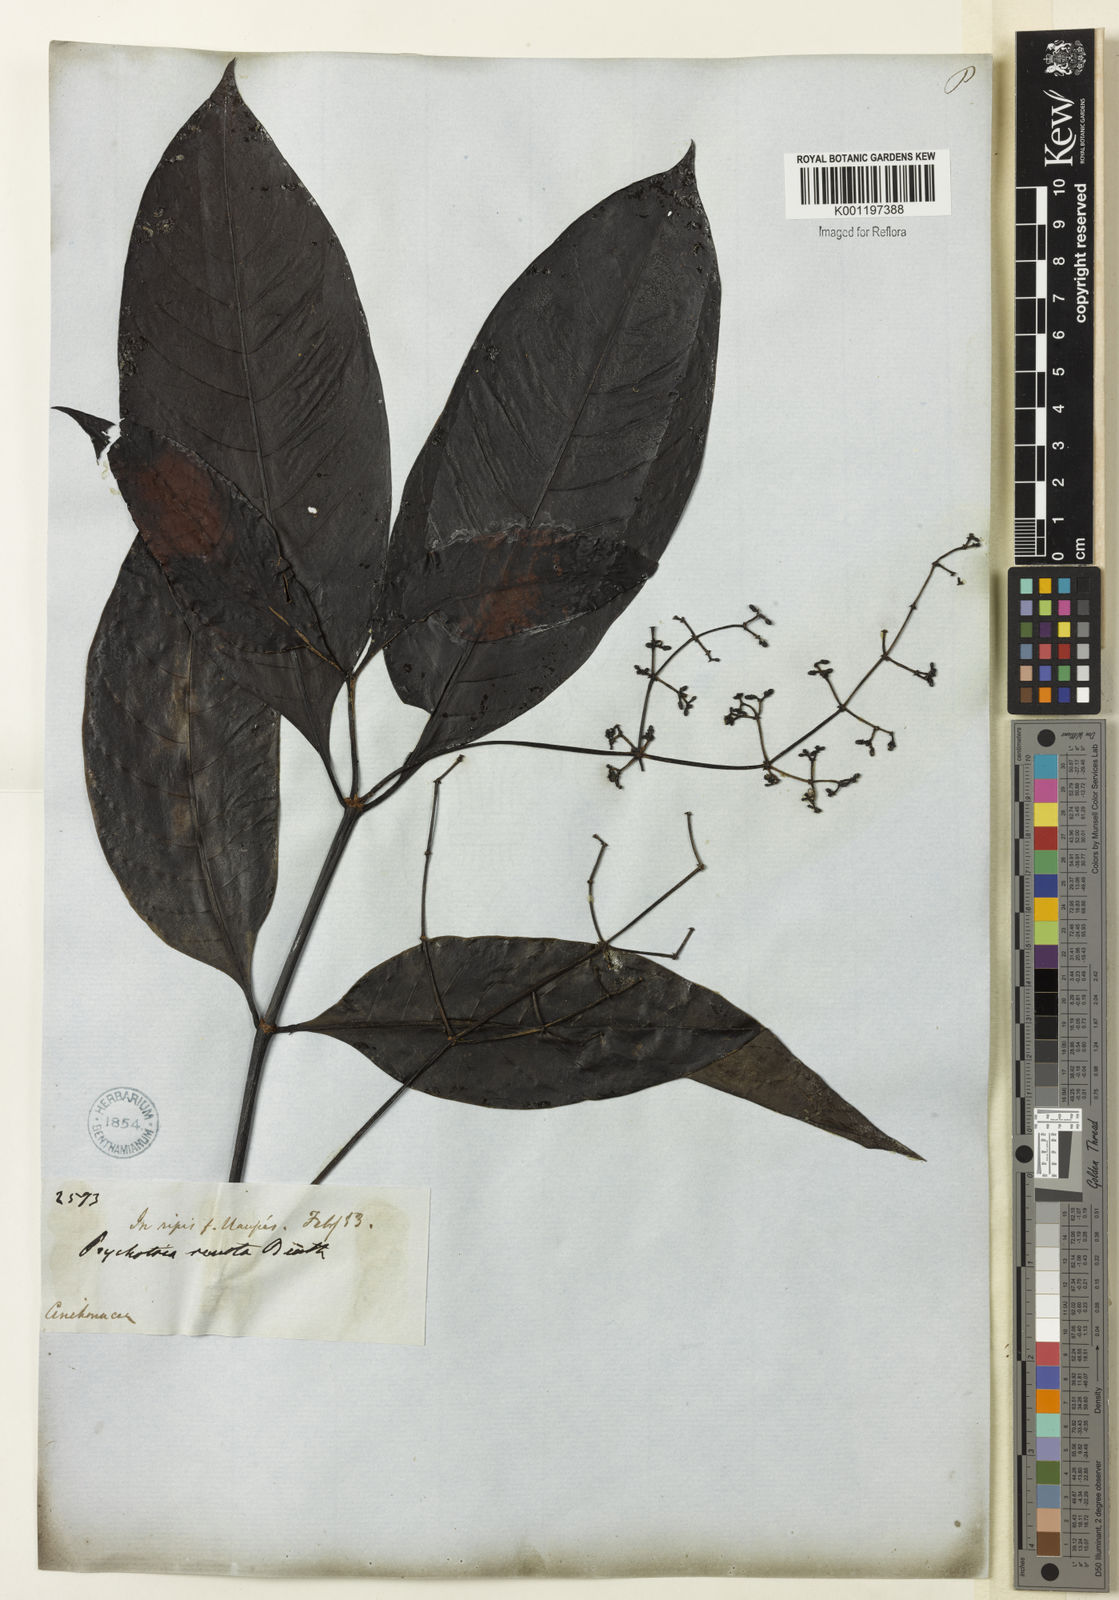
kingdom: Plantae
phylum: Tracheophyta
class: Magnoliopsida
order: Gentianales
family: Rubiaceae
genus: Psychotria
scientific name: Psychotria remota
